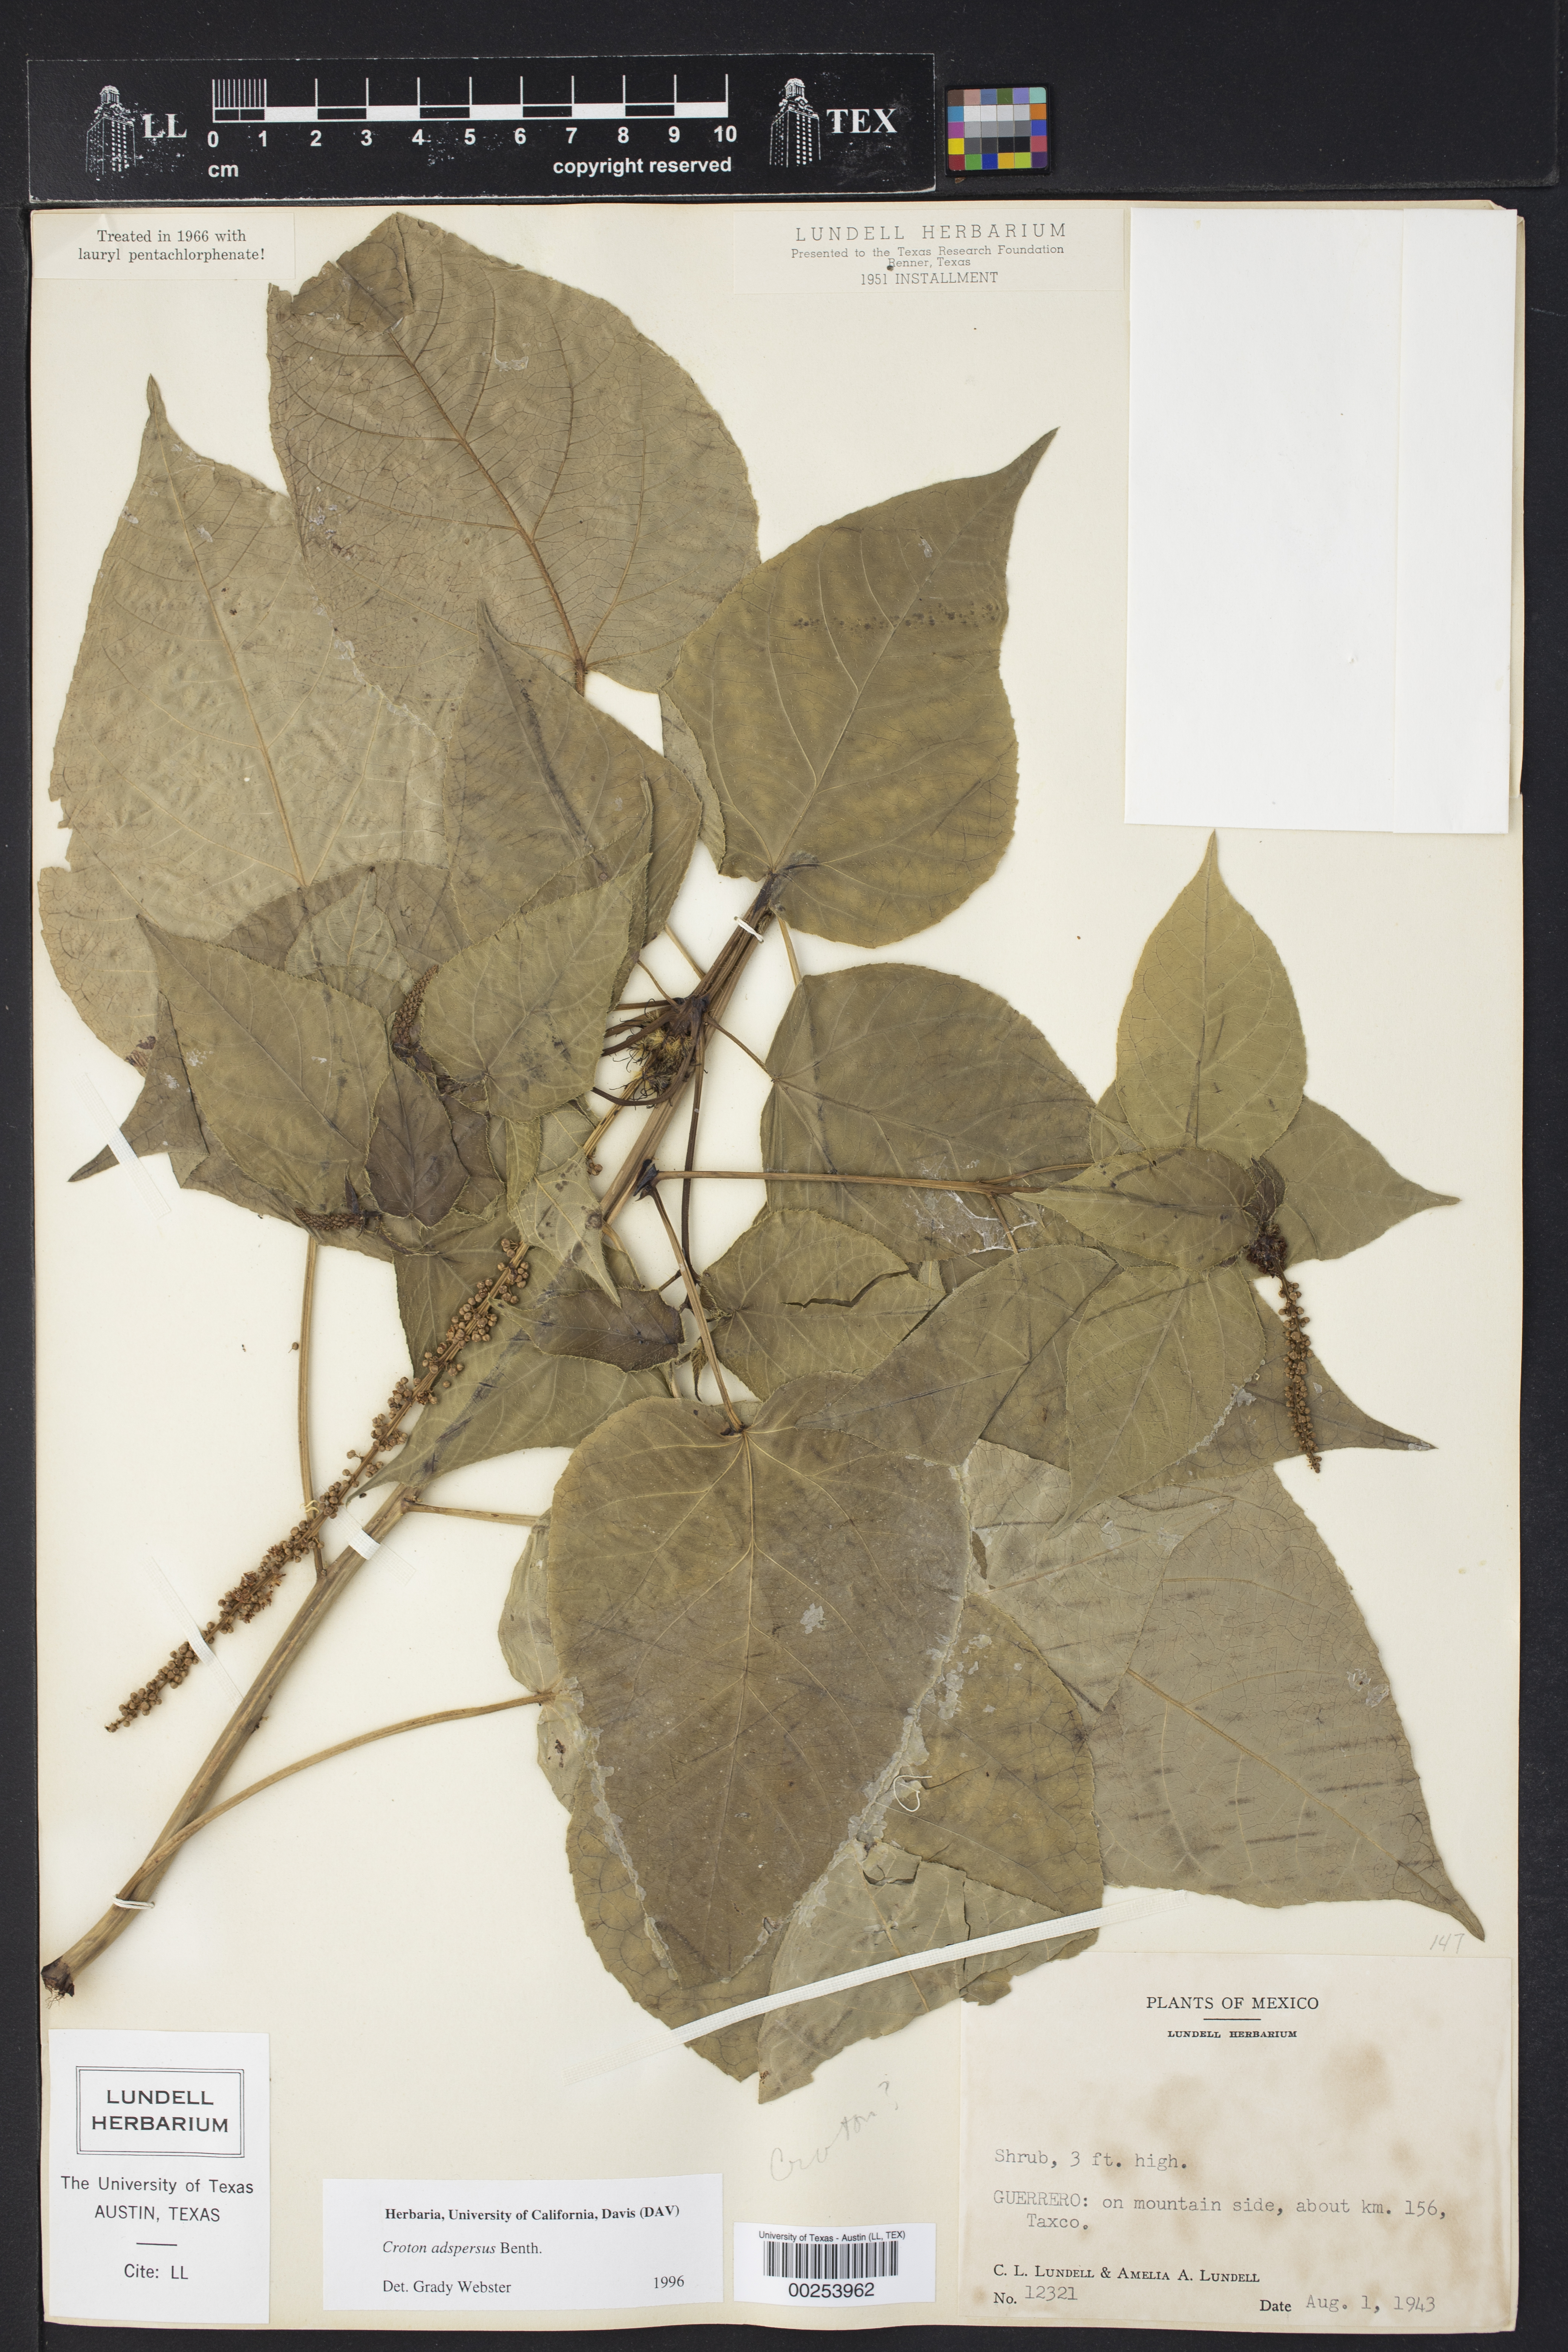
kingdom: Plantae
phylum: Tracheophyta
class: Magnoliopsida
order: Malpighiales
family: Euphorbiaceae
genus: Croton
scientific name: Croton adspersus
